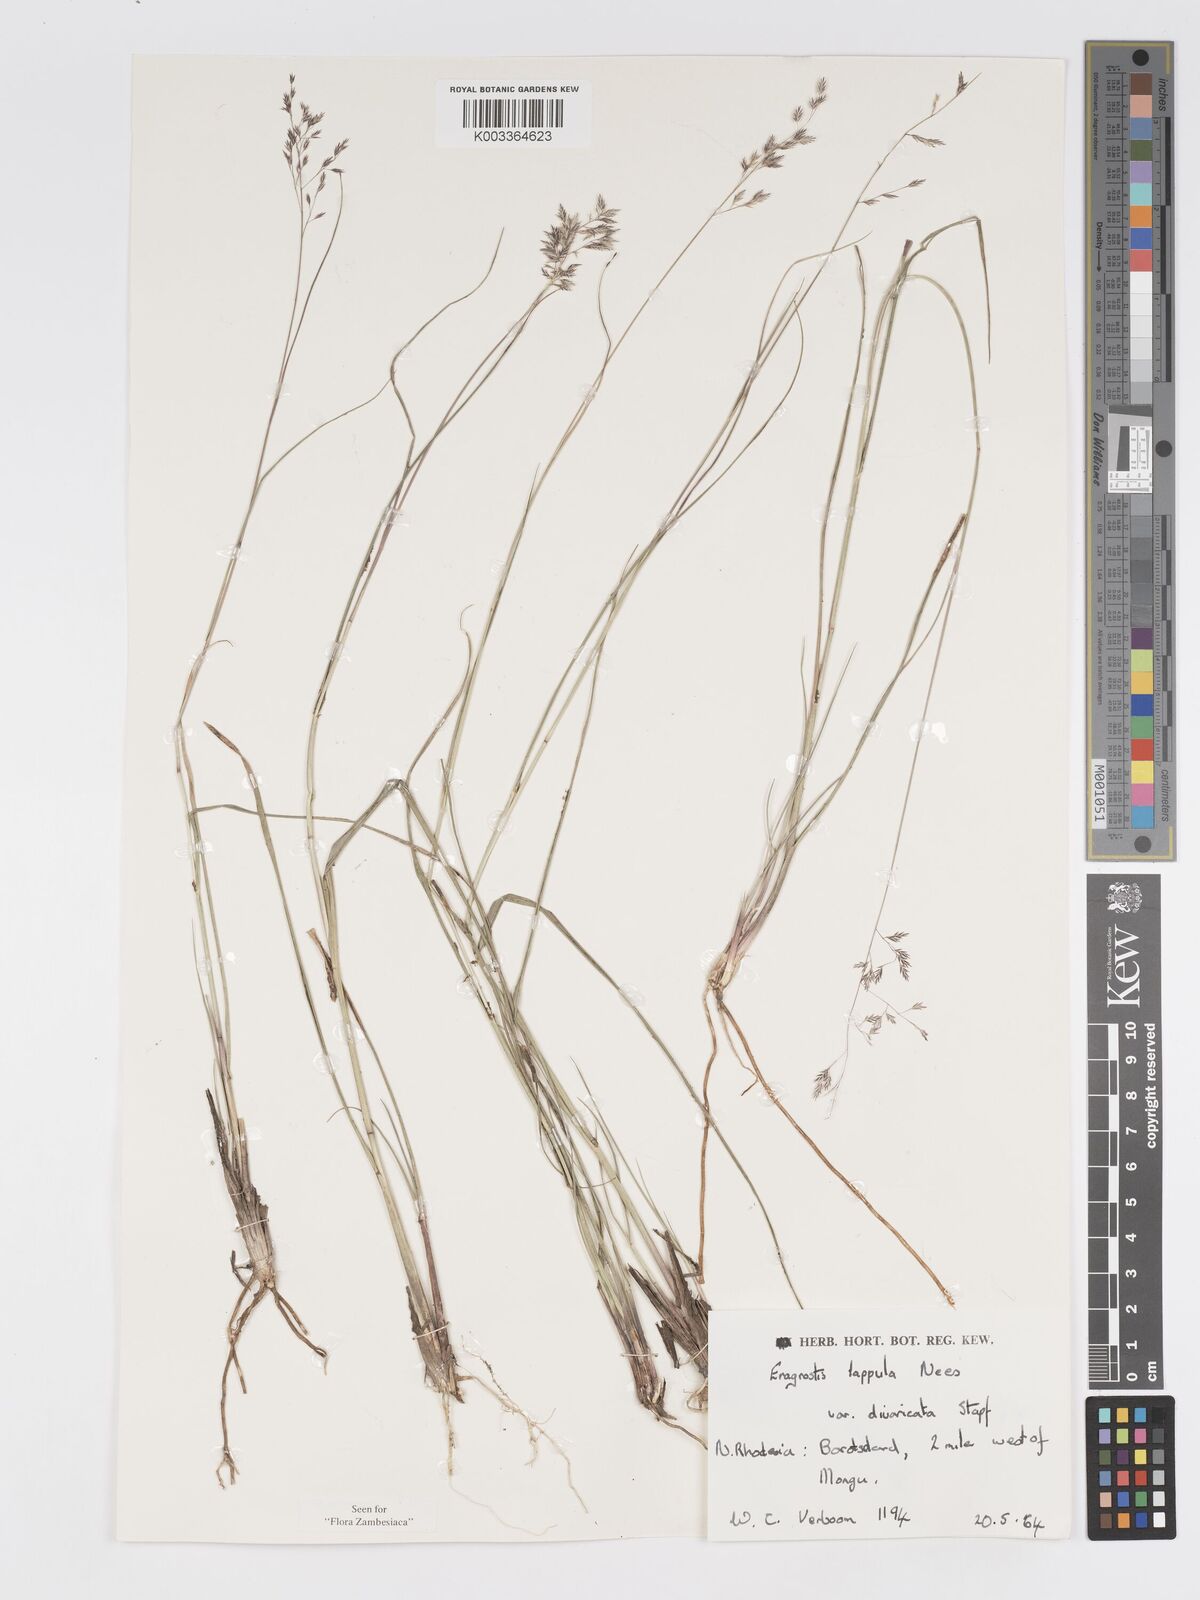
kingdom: Plantae
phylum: Tracheophyta
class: Liliopsida
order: Poales
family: Poaceae
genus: Eragrostis
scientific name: Eragrostis lappula
